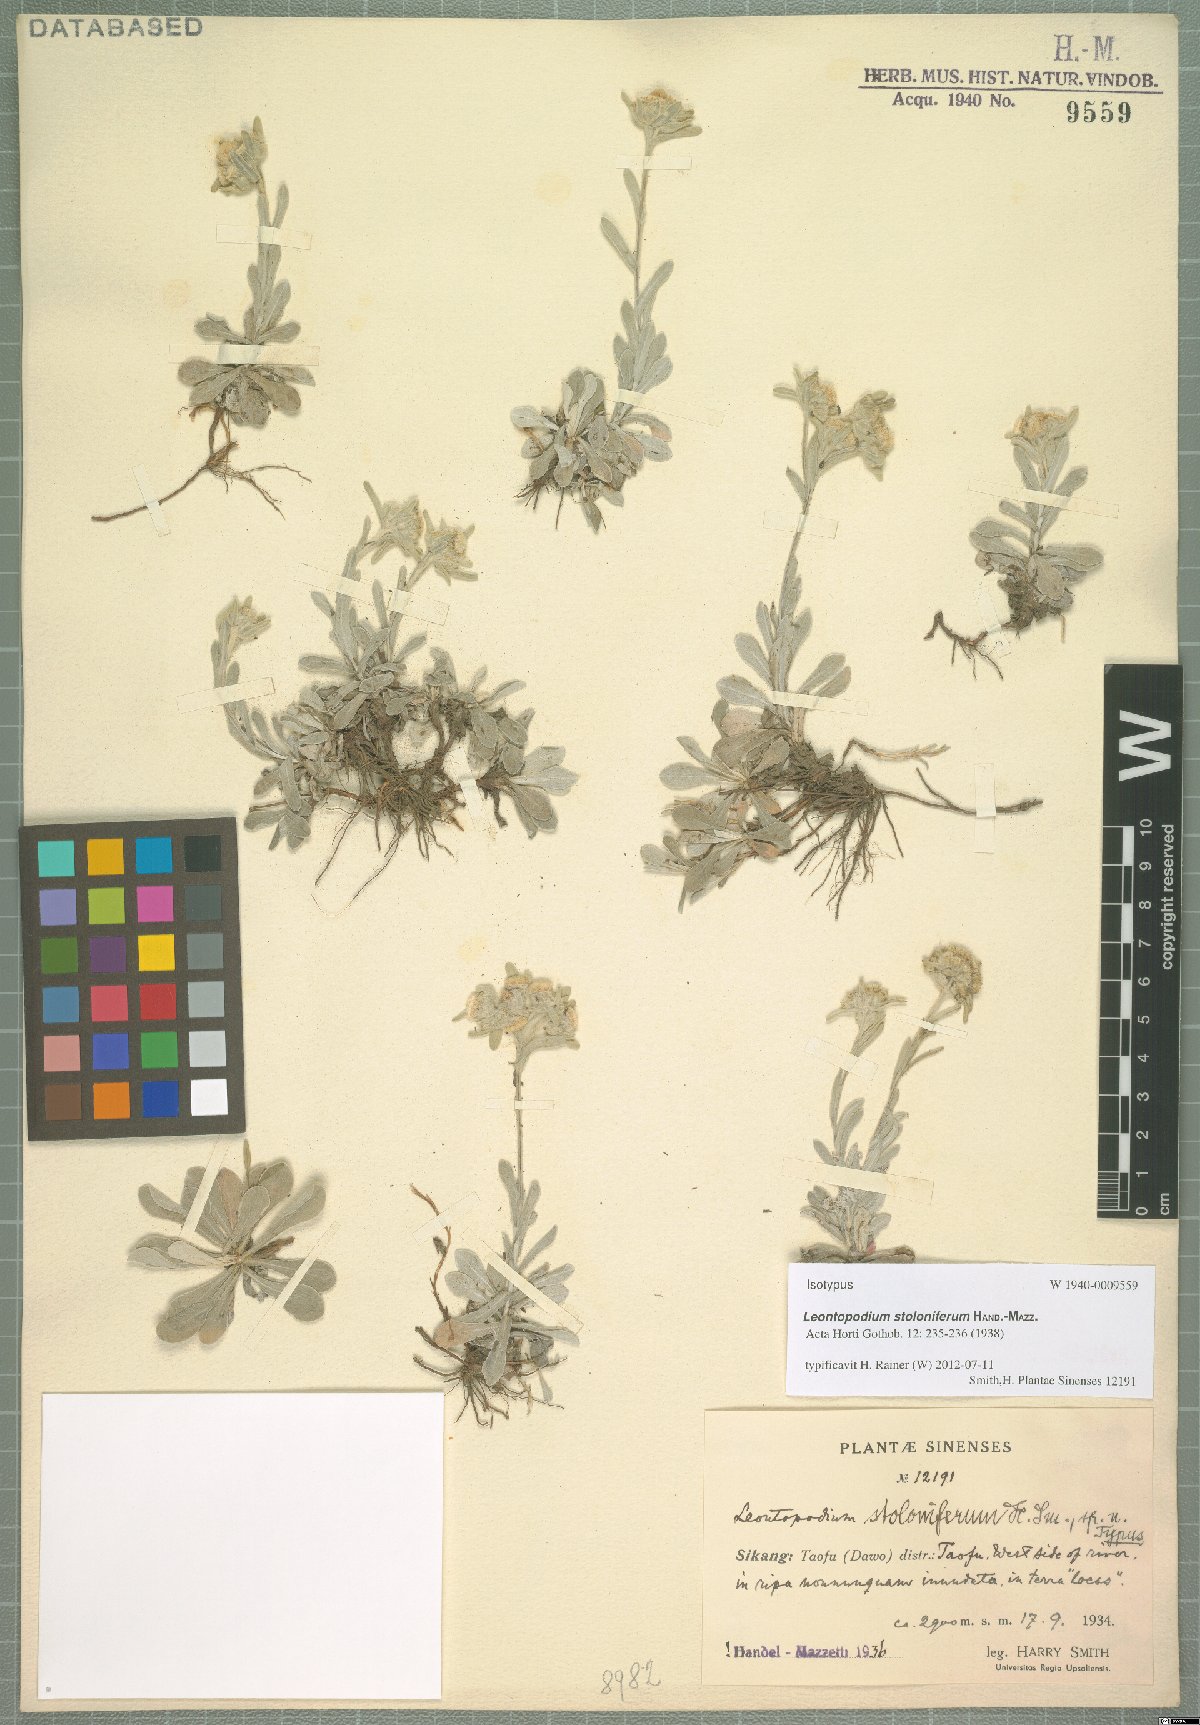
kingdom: Plantae
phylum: Tracheophyta
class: Magnoliopsida
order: Asterales
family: Asteraceae
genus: Leontopodium
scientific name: Leontopodium stoloniferum
